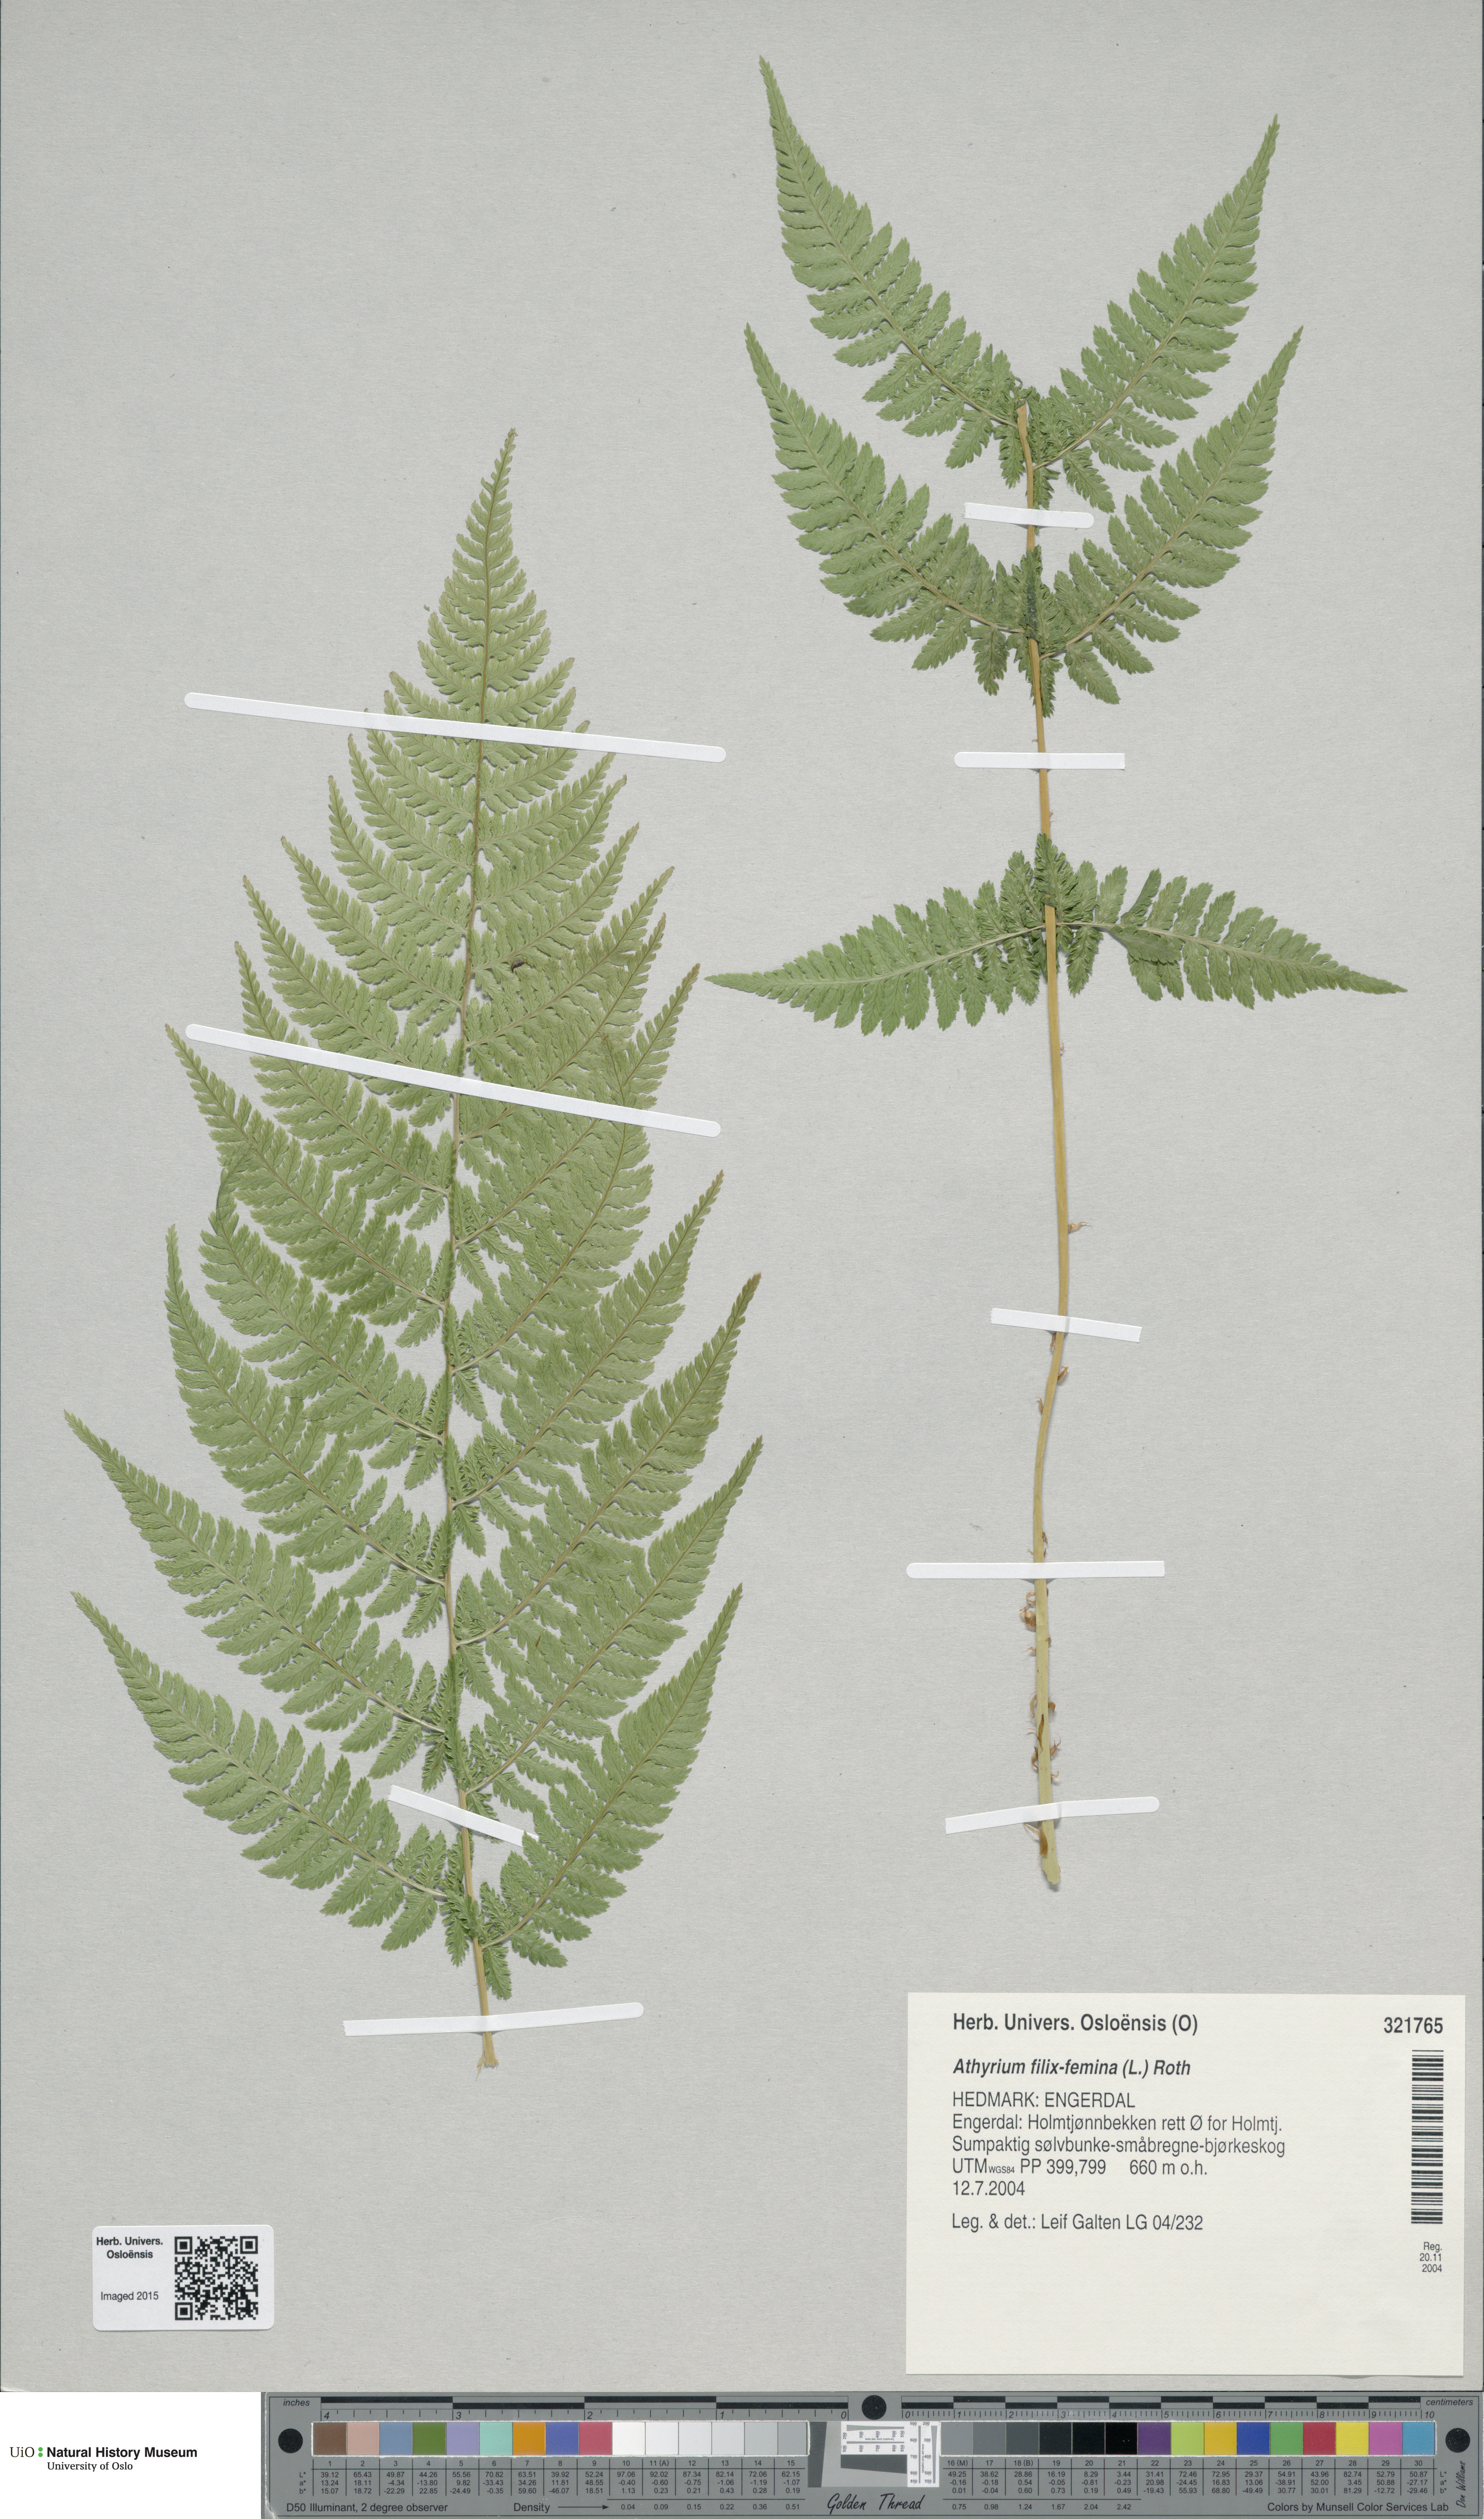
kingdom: Plantae
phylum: Tracheophyta
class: Polypodiopsida
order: Polypodiales
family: Athyriaceae
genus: Athyrium
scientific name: Athyrium filix-femina
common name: Lady fern
